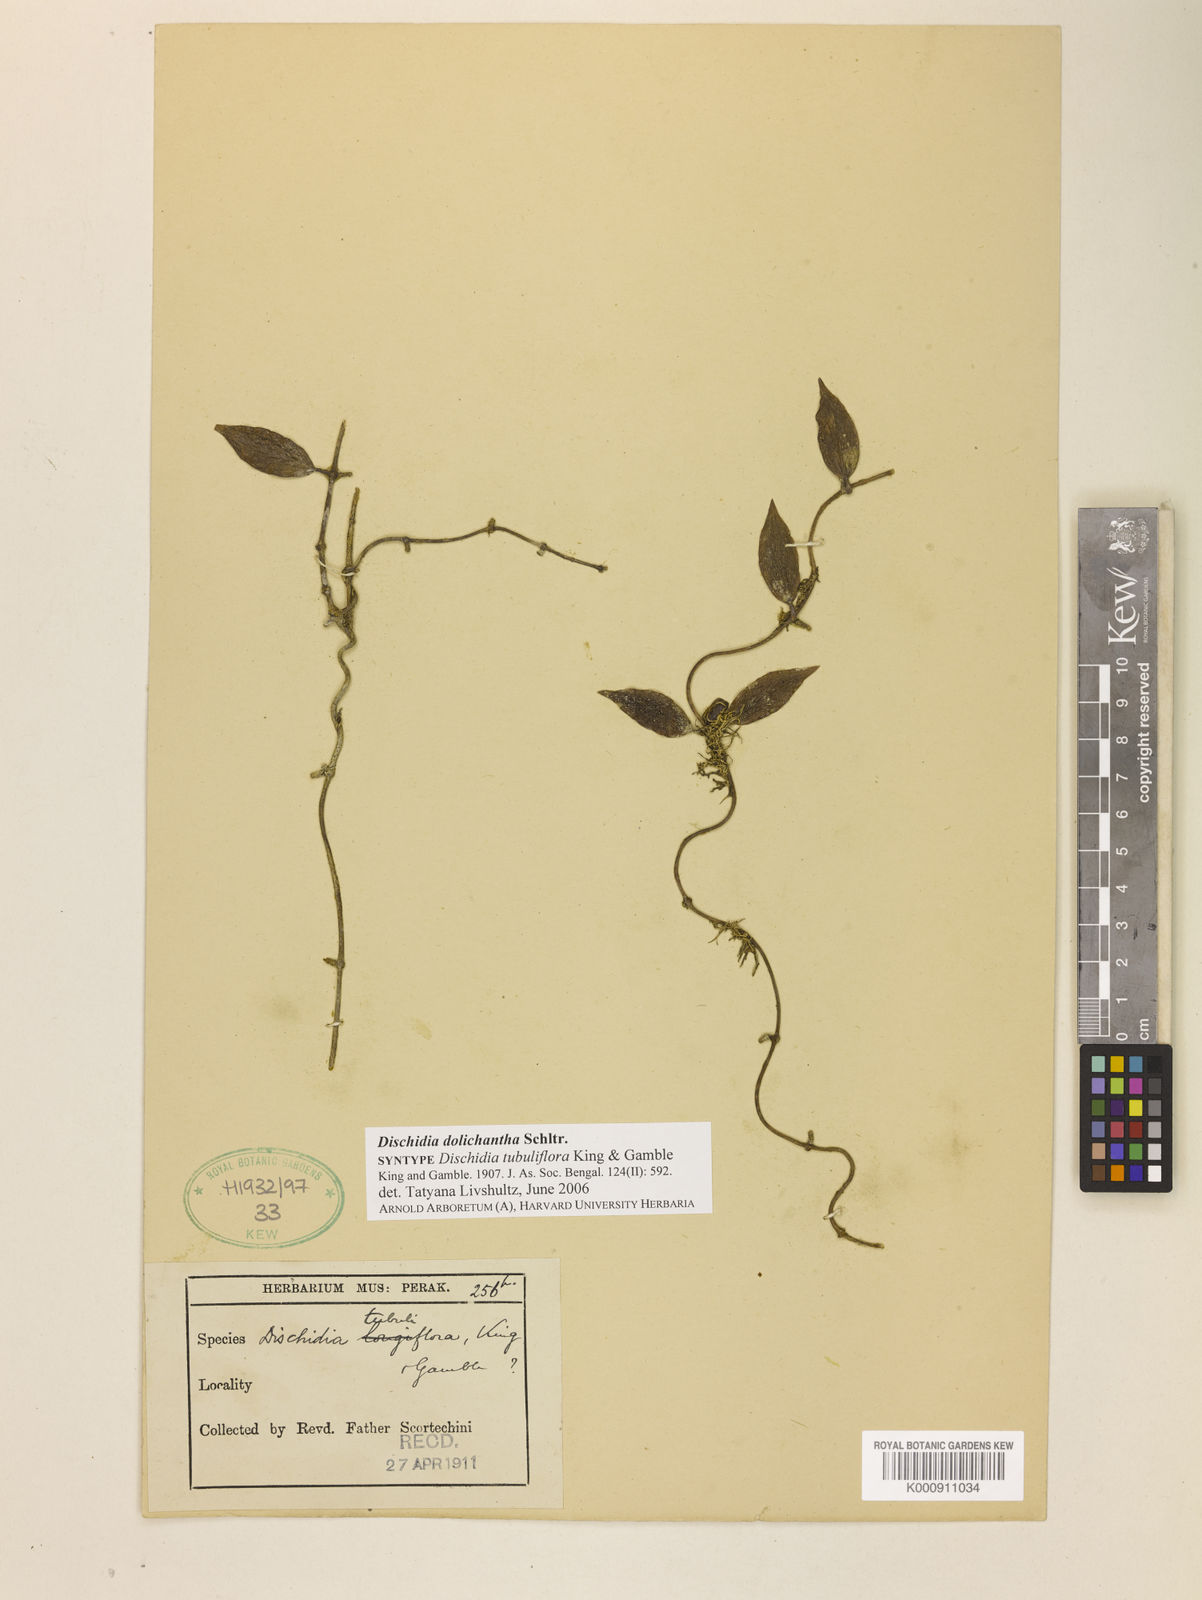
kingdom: Plantae
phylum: Tracheophyta
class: Magnoliopsida
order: Gentianales
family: Apocynaceae
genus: Dischidia
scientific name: Dischidia dolichantha
